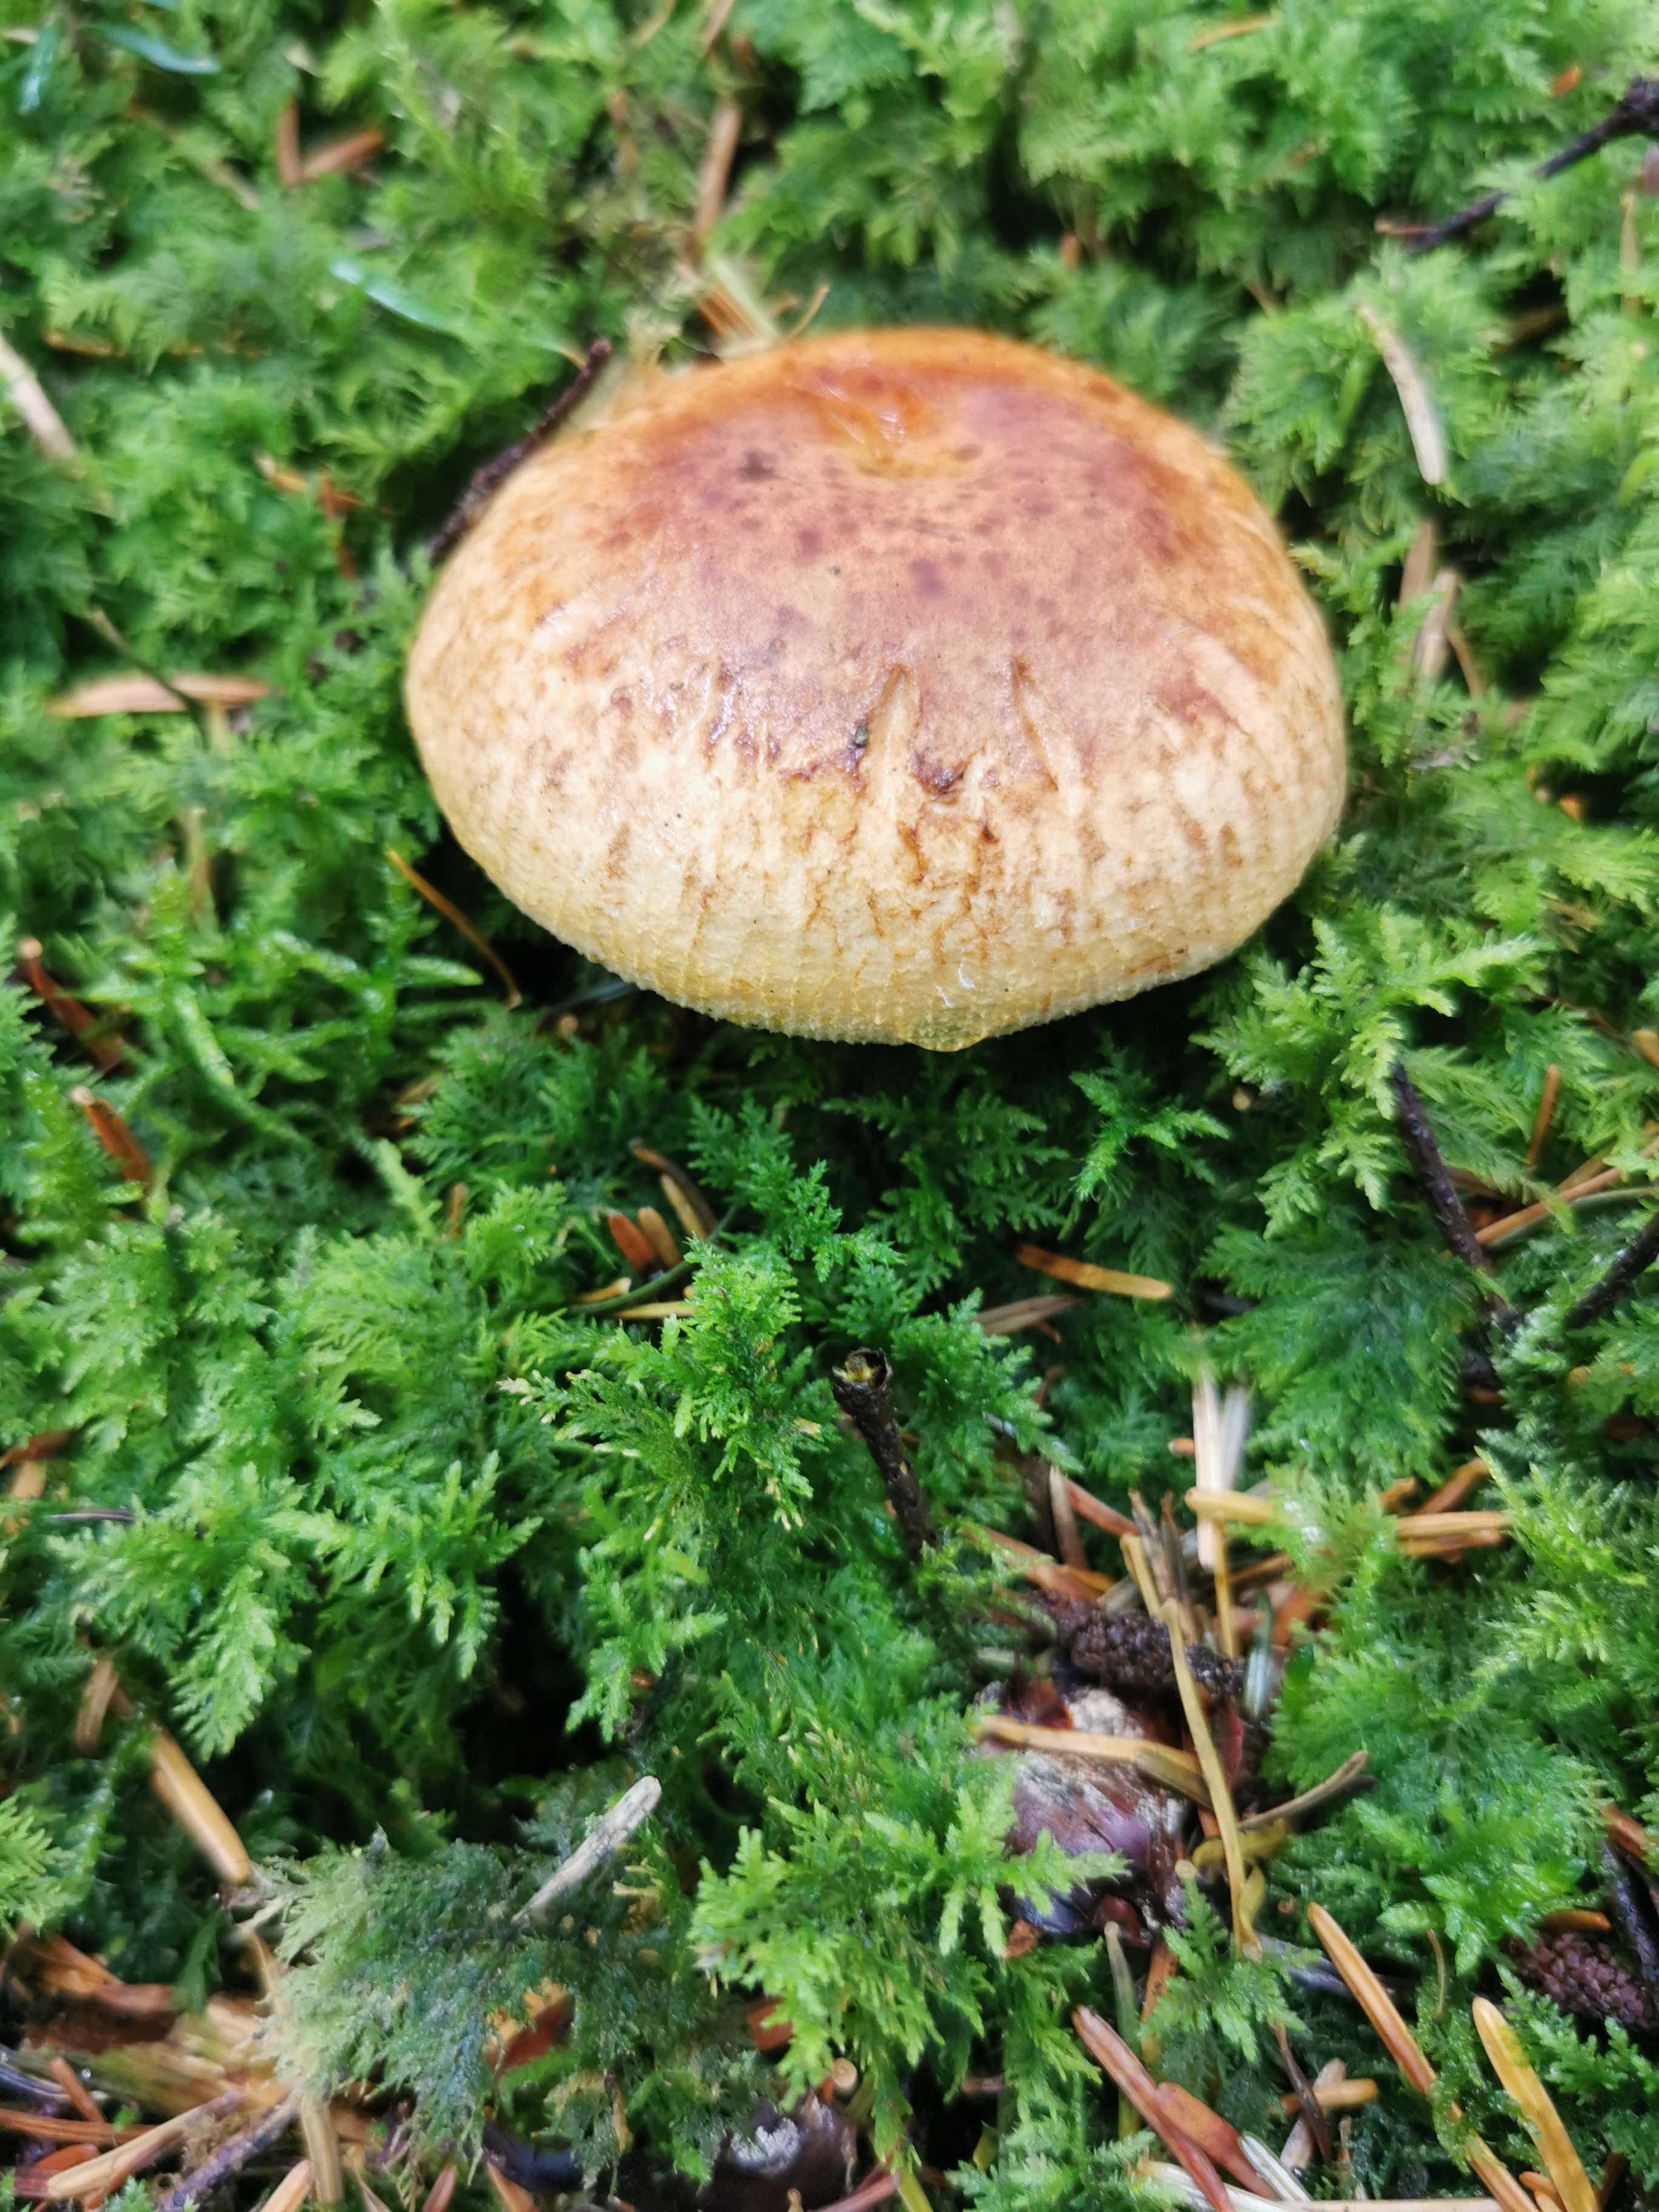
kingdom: Fungi
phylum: Basidiomycota
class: Agaricomycetes
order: Boletales
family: Paxillaceae
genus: Paxillus
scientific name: Paxillus
